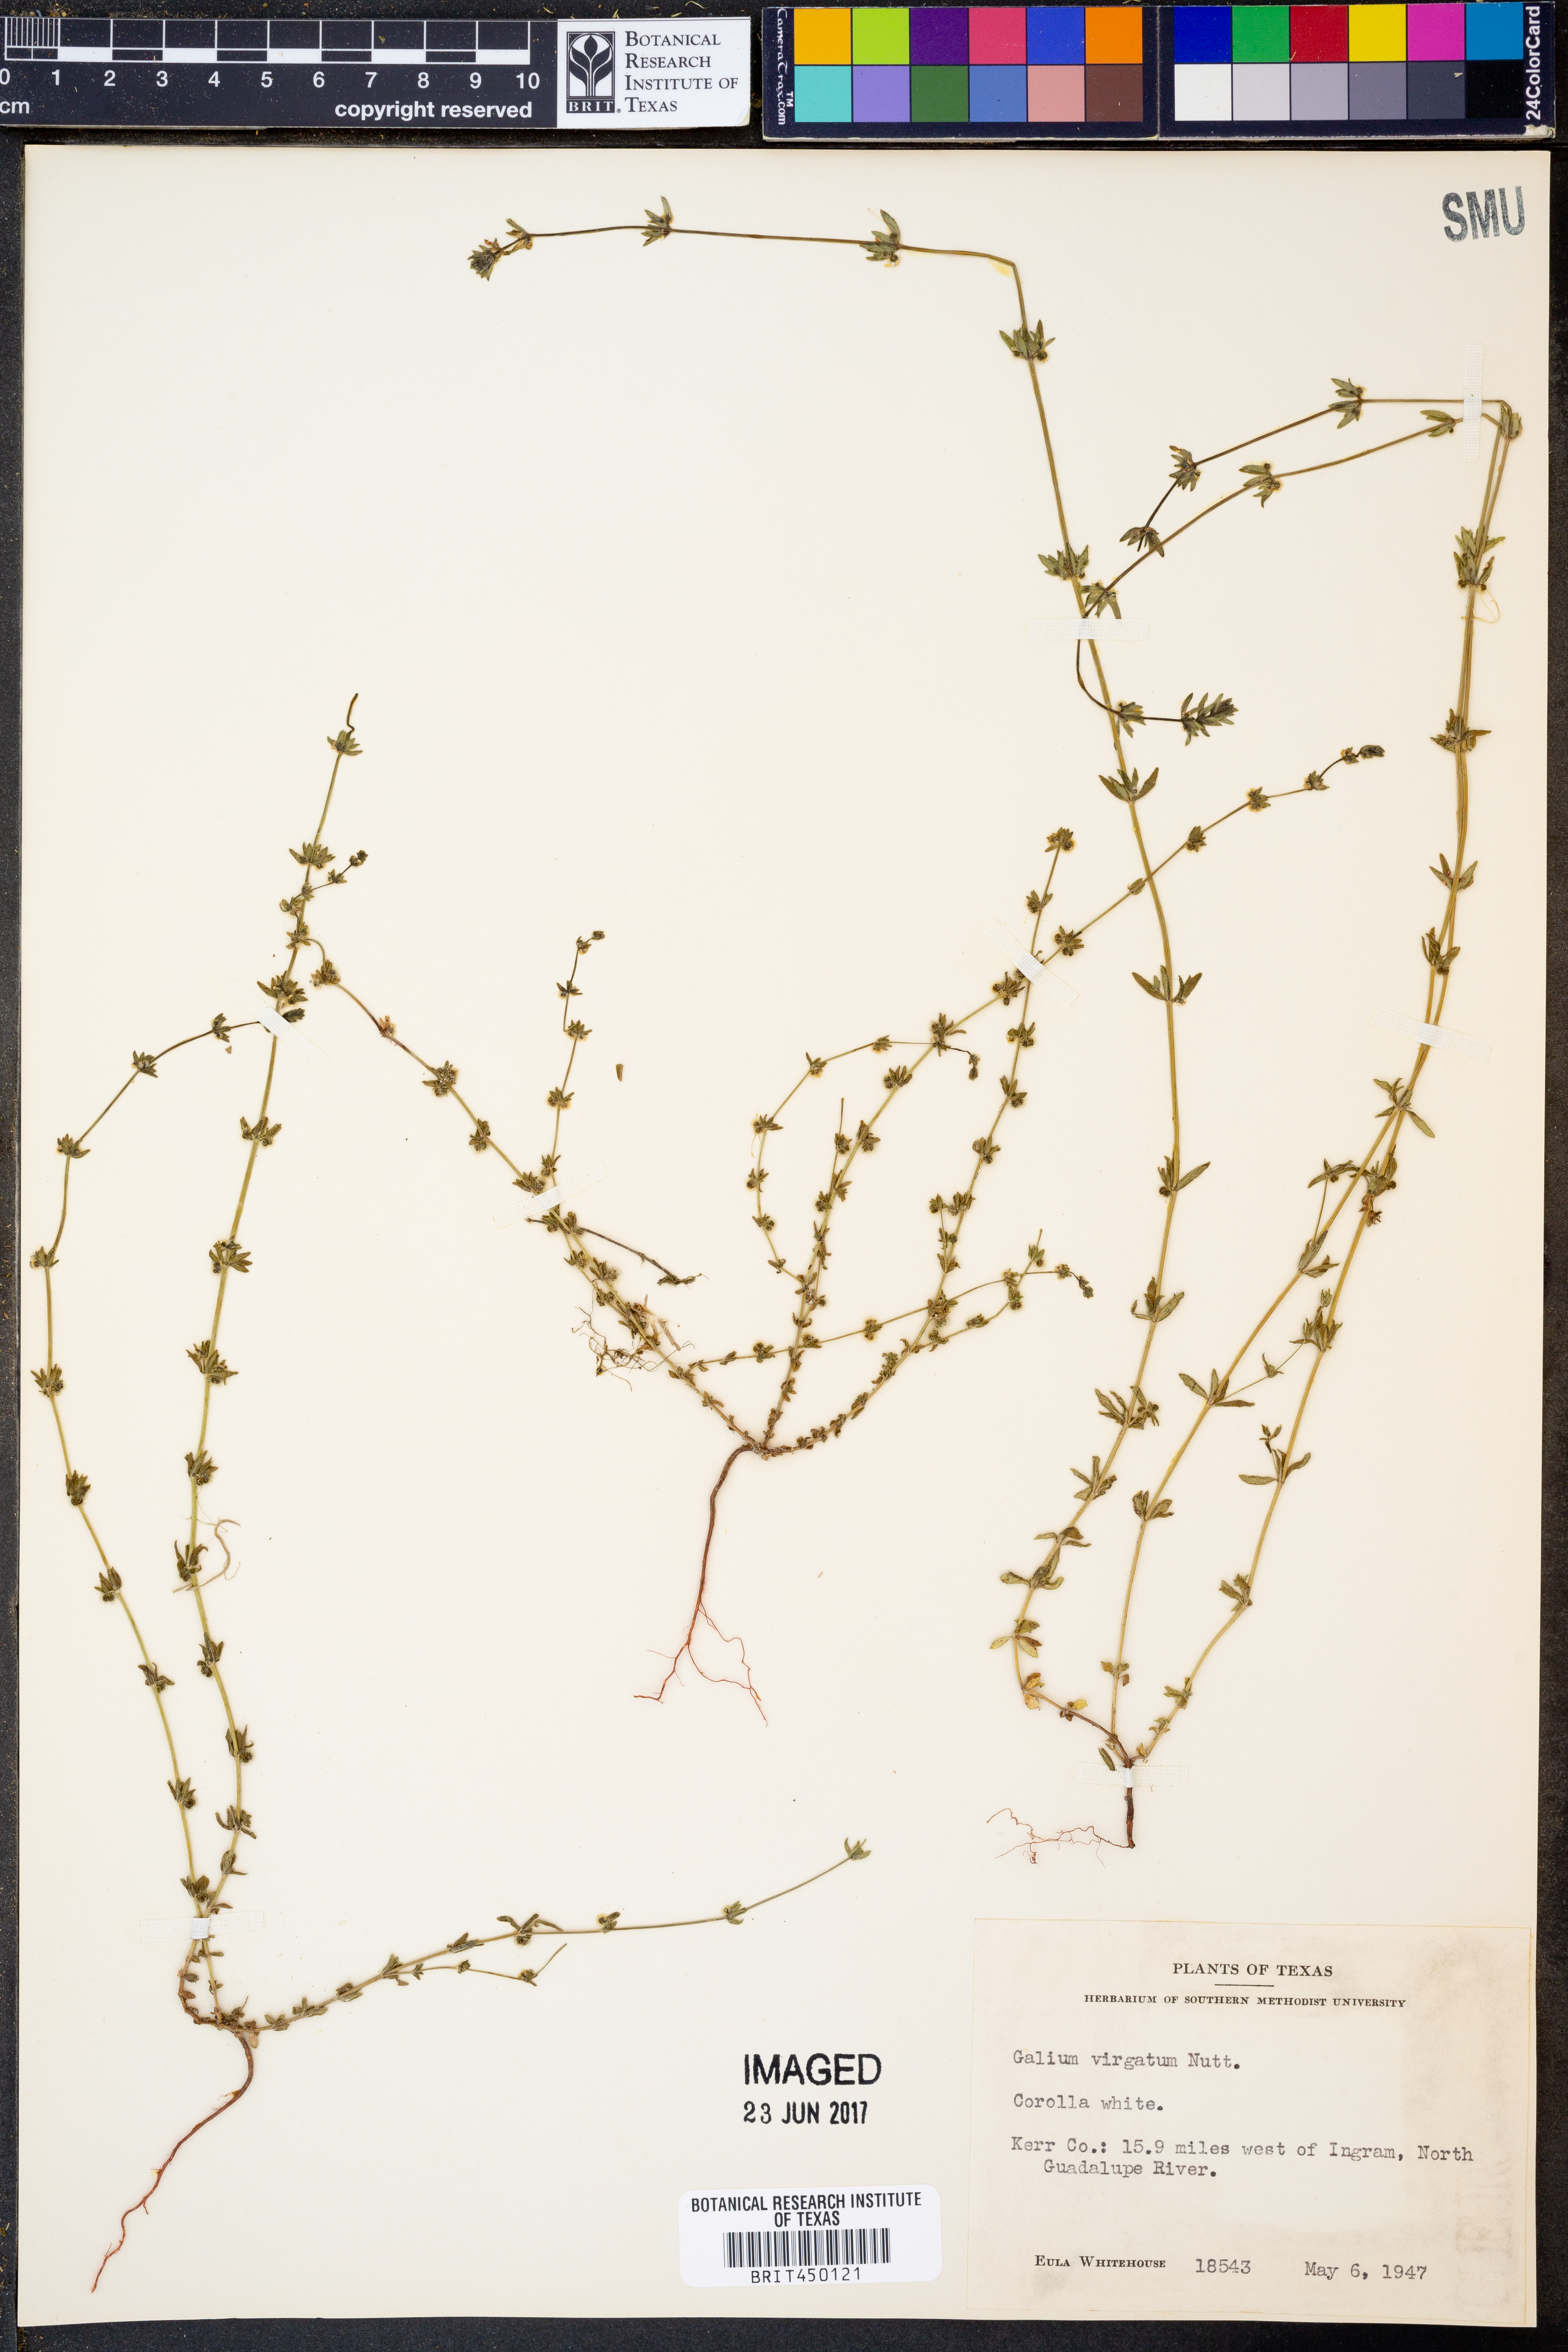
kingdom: Plantae
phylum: Tracheophyta
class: Magnoliopsida
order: Gentianales
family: Rubiaceae
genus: Galium
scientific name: Galium virgatum
